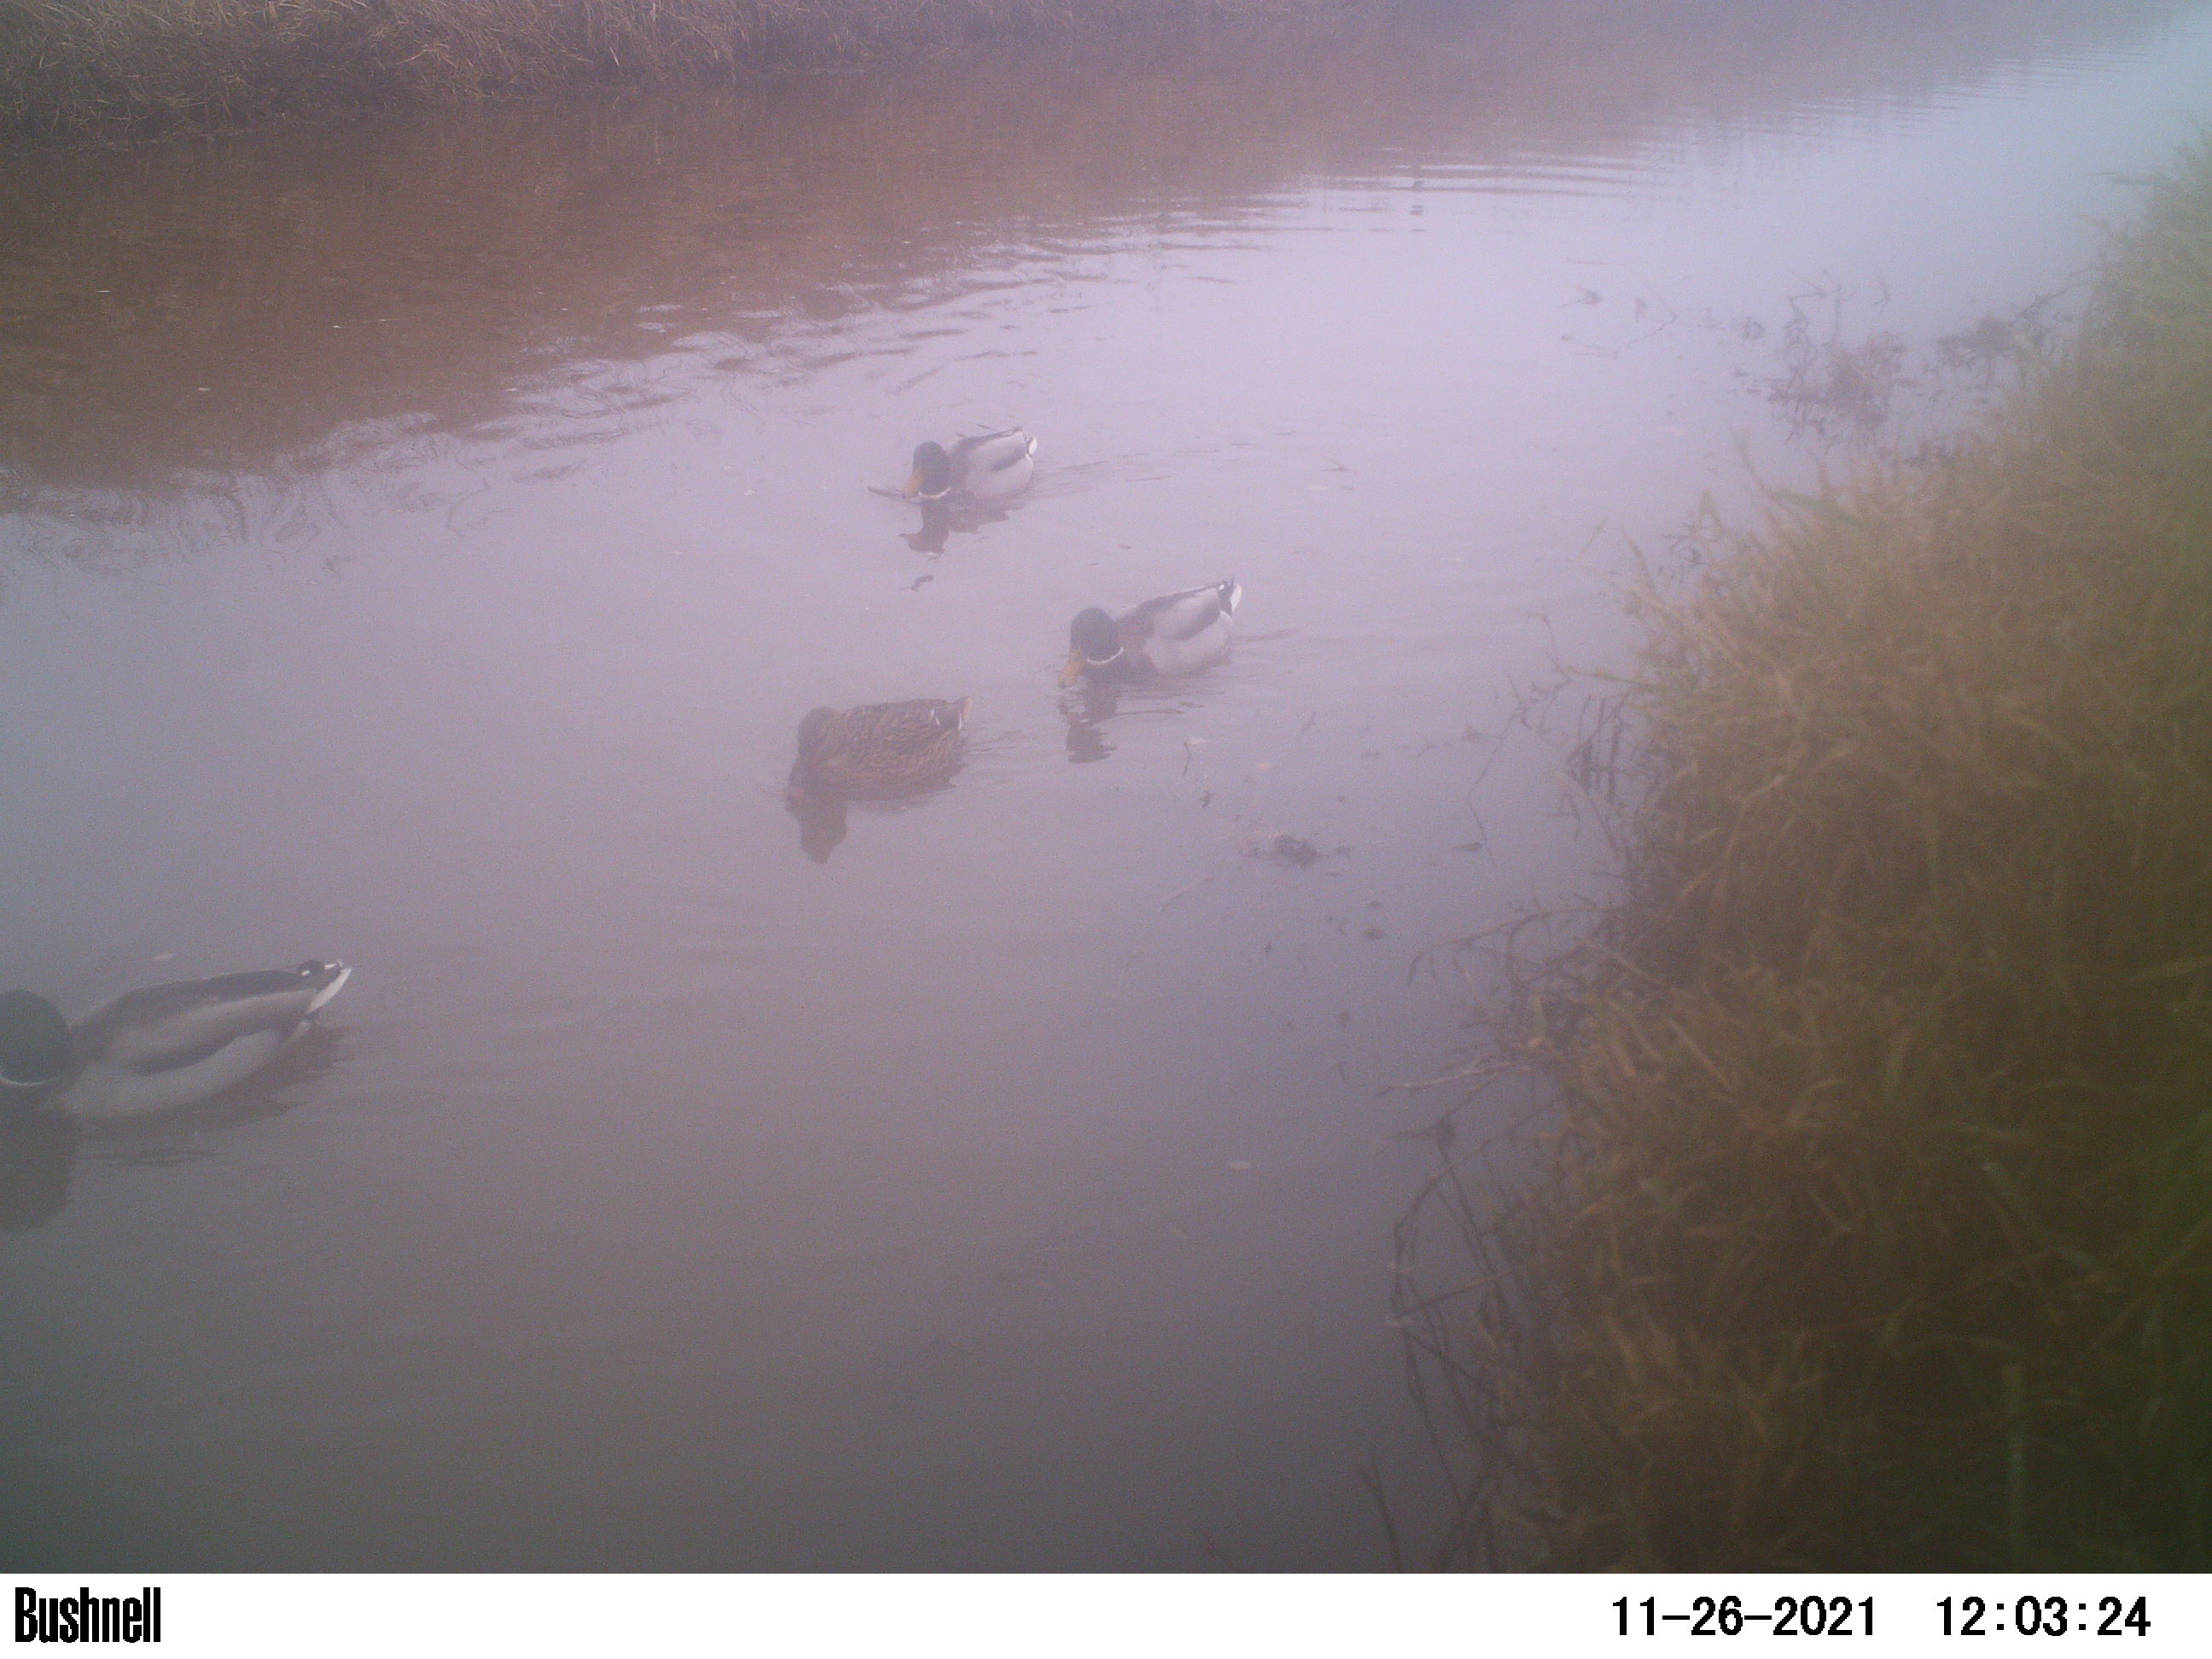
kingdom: Animalia
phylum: Chordata
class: Aves
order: Anseriformes
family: Anatidae
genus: Anas
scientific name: Anas
